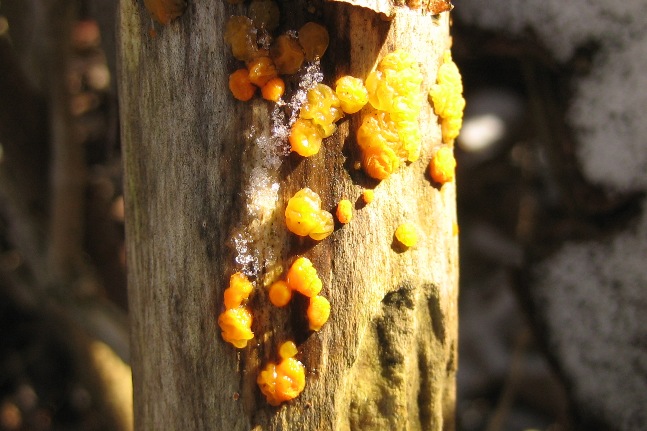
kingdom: Fungi
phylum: Basidiomycota
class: Dacrymycetes
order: Dacrymycetales
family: Dacrymycetaceae
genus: Dacrymyces
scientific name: Dacrymyces stillatus
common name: almindelig tåresvamp
